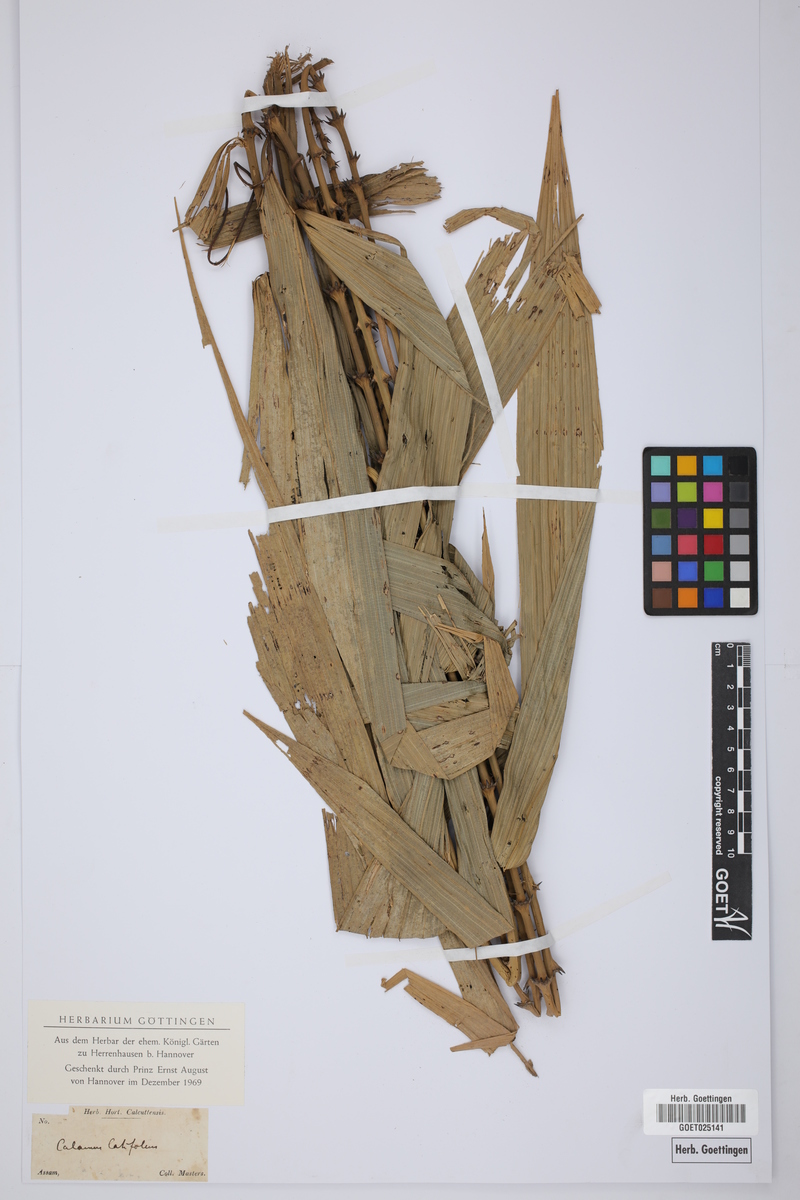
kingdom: Plantae
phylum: Tracheophyta
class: Liliopsida
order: Arecales
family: Arecaceae
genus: Calamus
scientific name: Calamus latifolius
